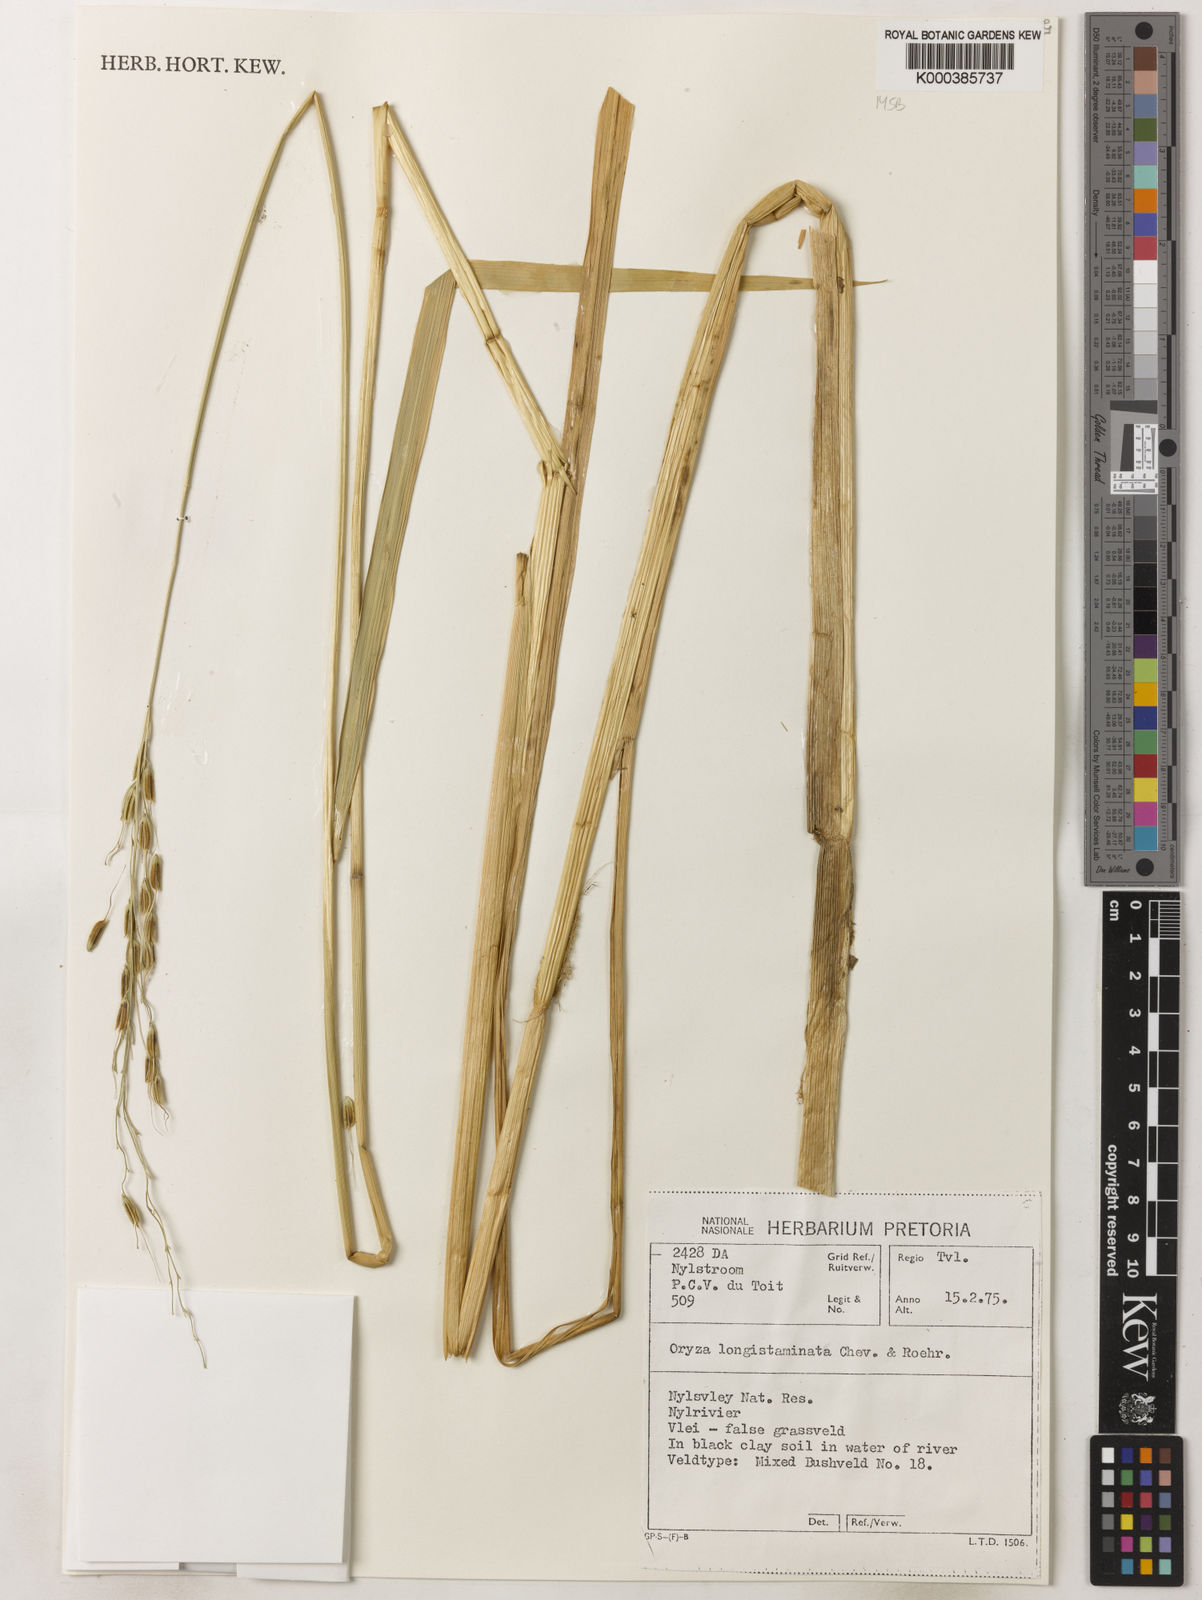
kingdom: Plantae
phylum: Tracheophyta
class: Liliopsida
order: Poales
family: Poaceae
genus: Oryza
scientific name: Oryza longistaminata
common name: Red rice
